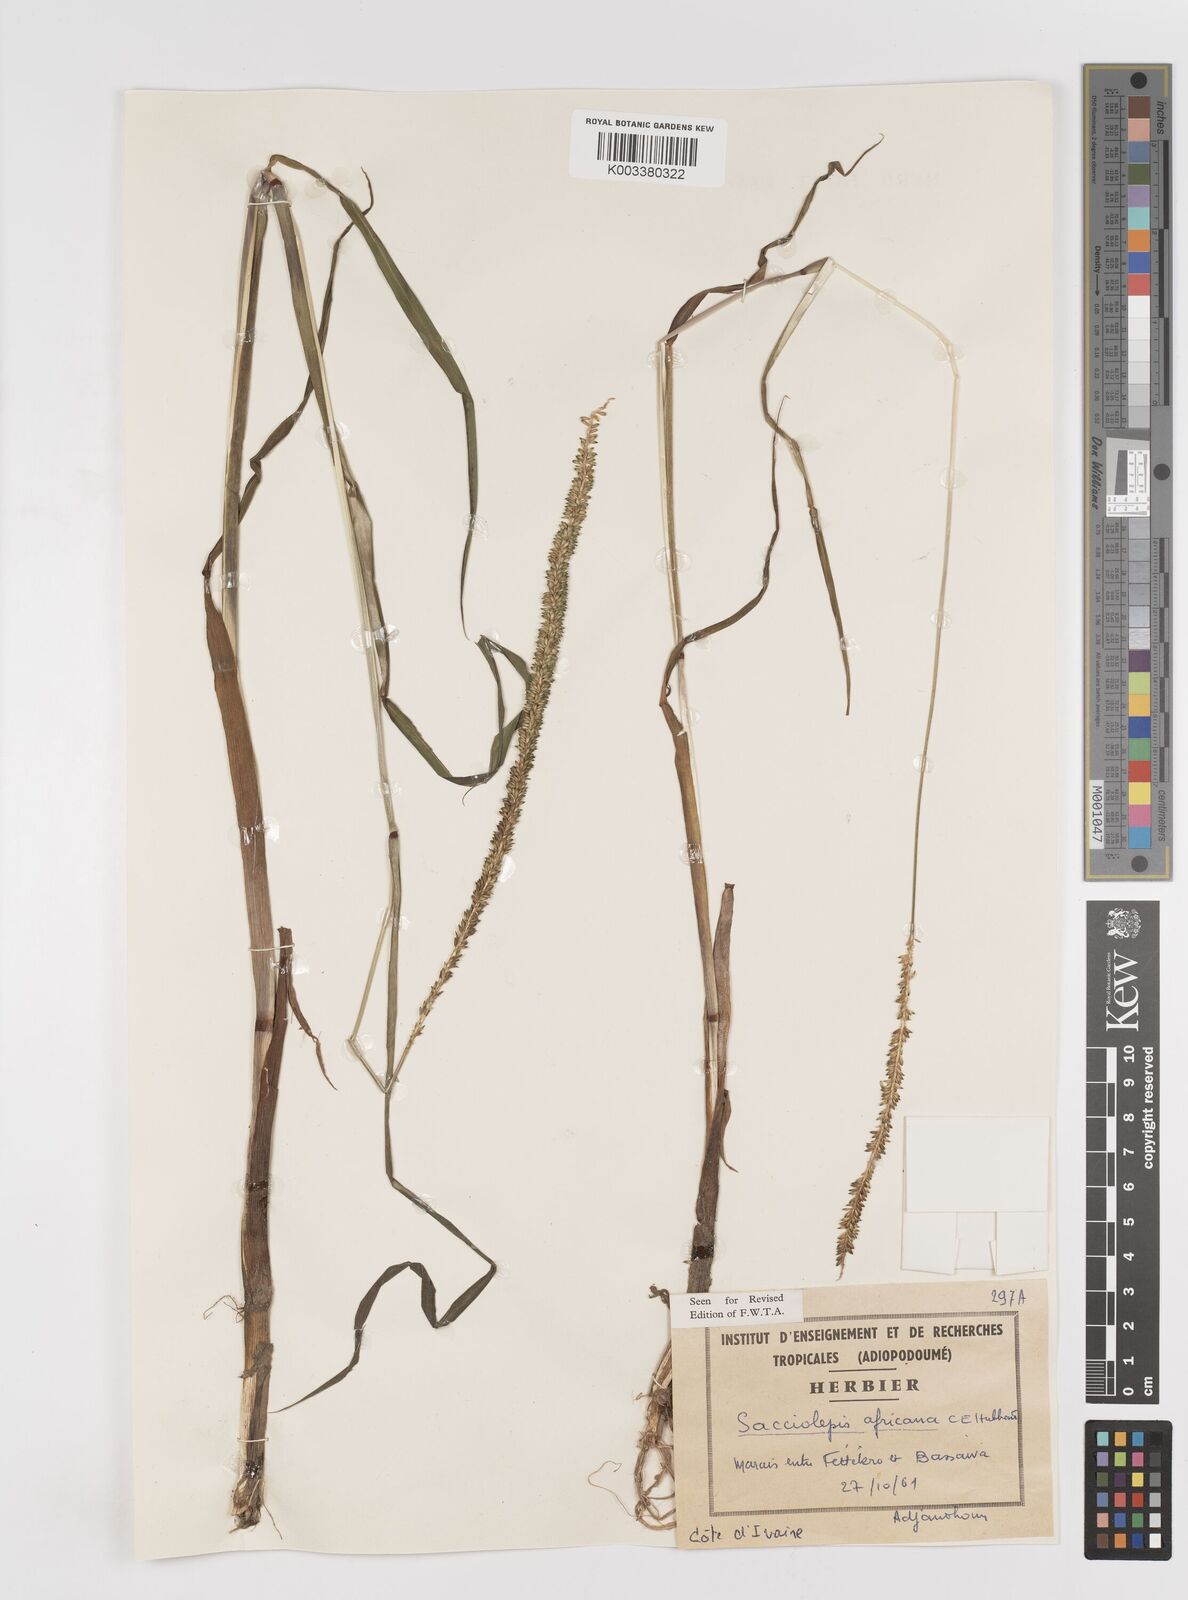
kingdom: Plantae
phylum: Tracheophyta
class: Liliopsida
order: Poales
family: Poaceae
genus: Sacciolepis
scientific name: Sacciolepis africana
